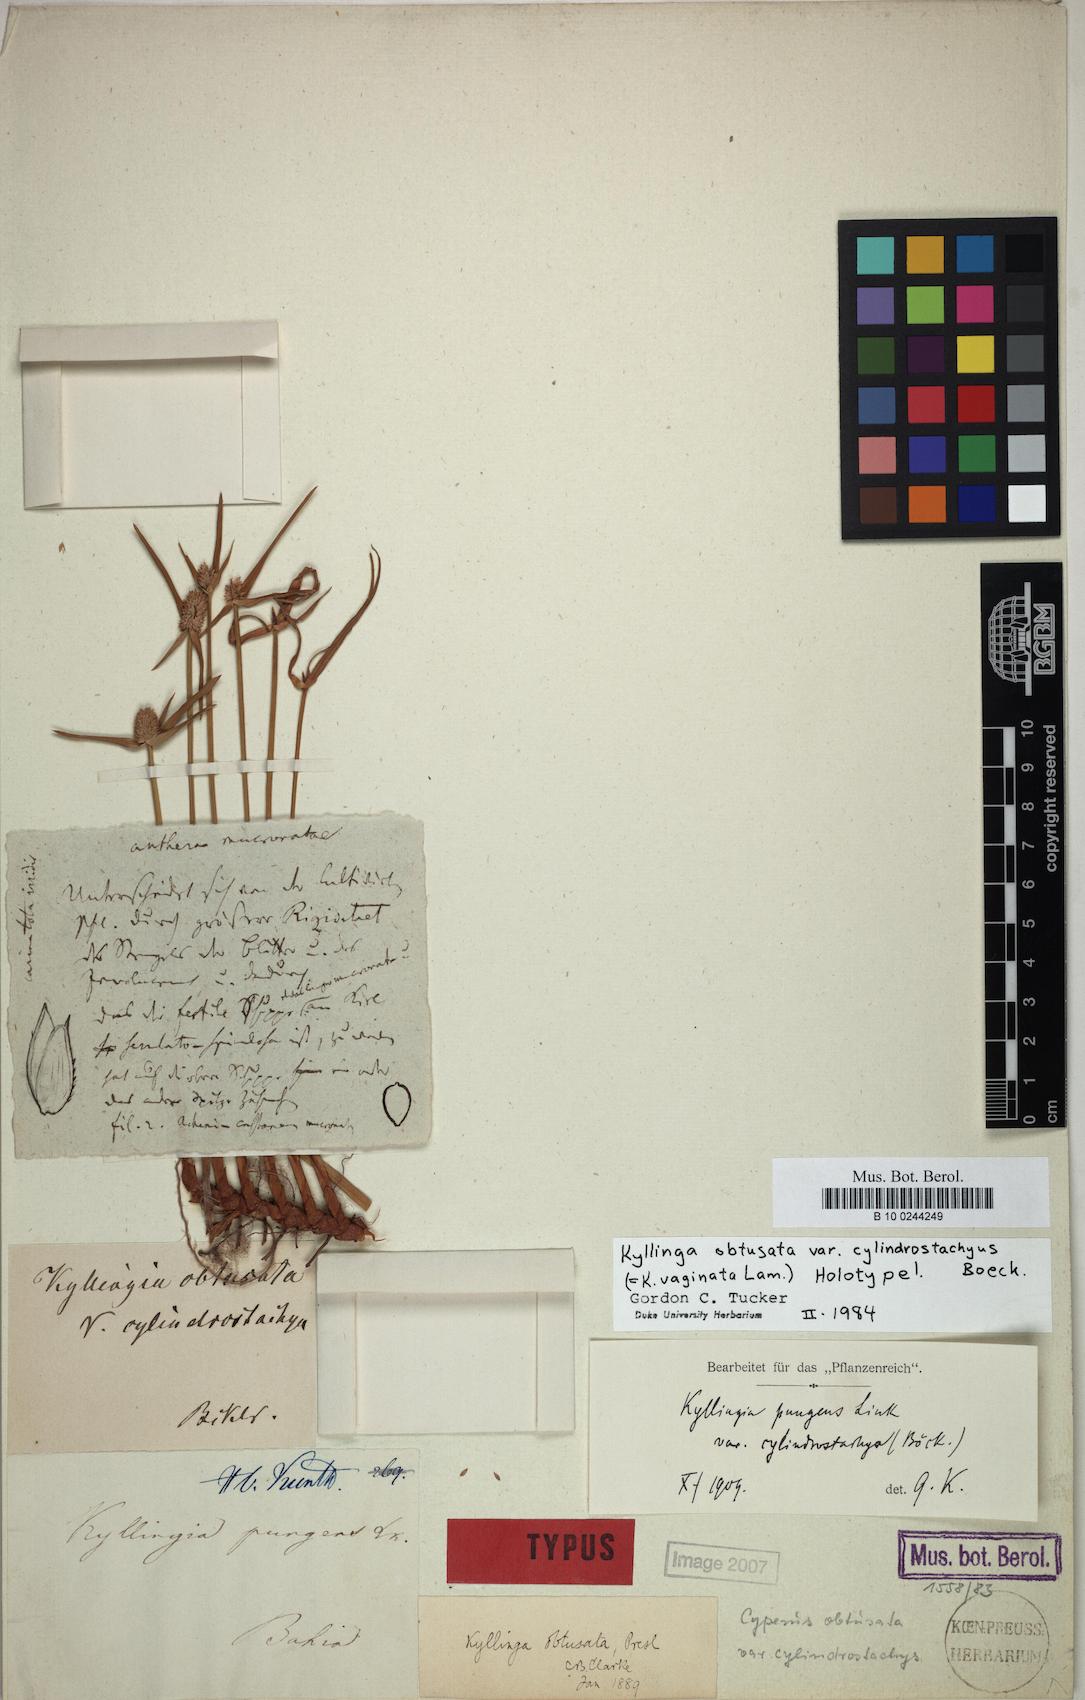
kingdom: Plantae
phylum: Tracheophyta
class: Liliopsida
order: Poales
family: Cyperaceae
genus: Cyperus
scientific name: Cyperus obtusatus
